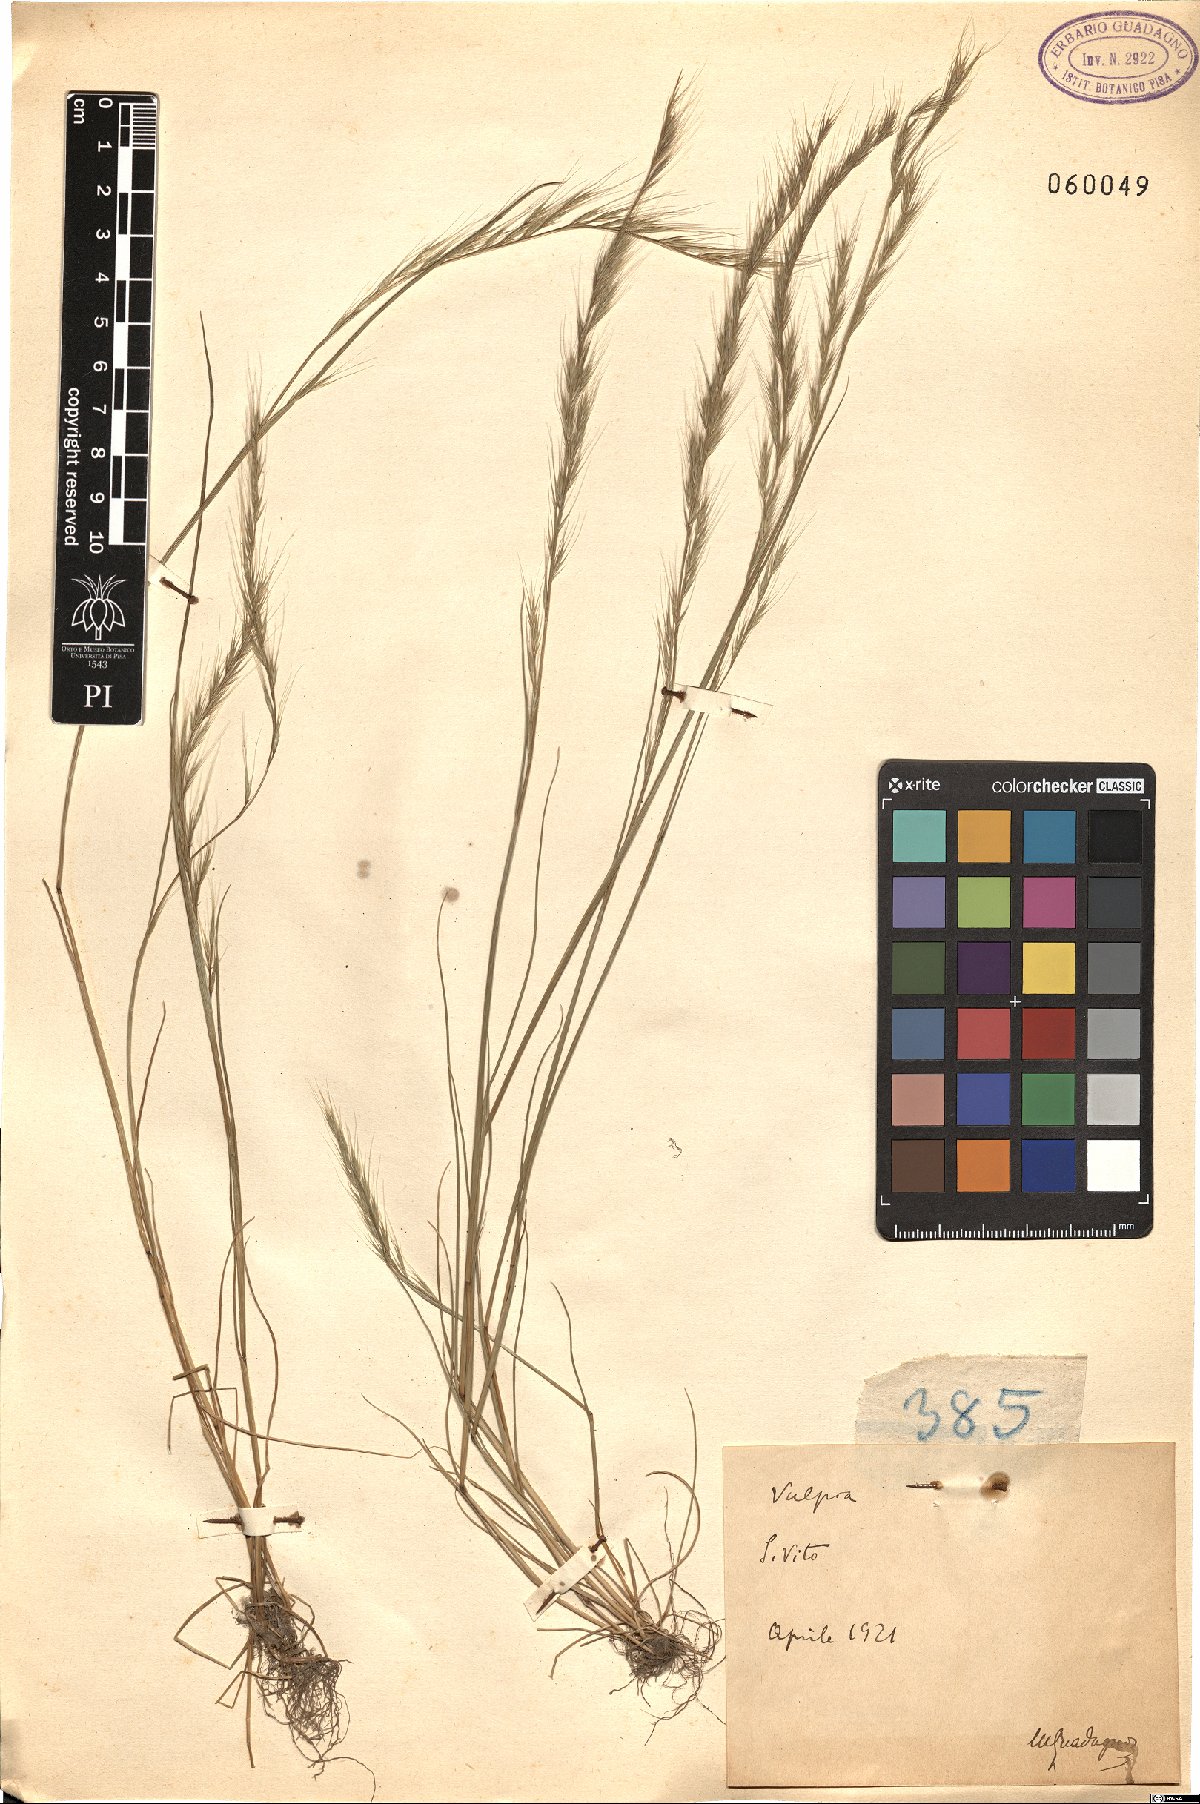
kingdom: Plantae
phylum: Tracheophyta
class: Liliopsida
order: Poales
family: Poaceae
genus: Festuca
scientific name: Festuca
